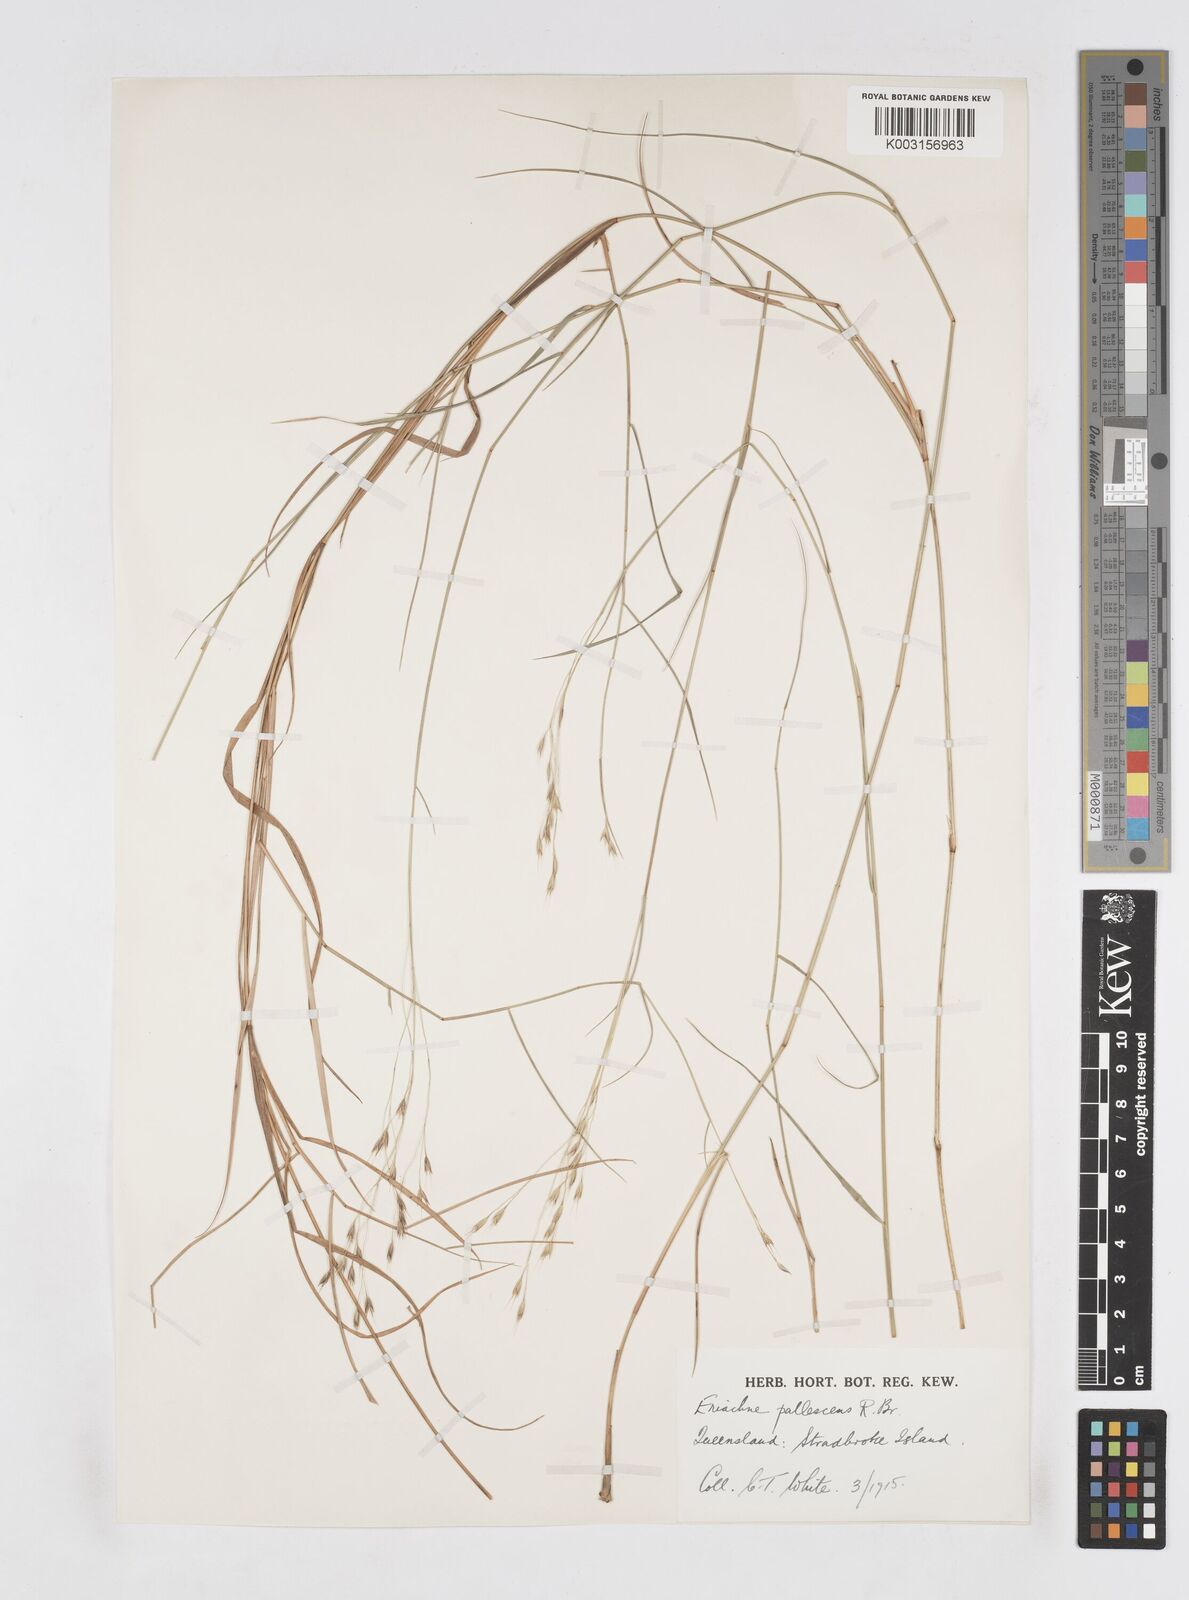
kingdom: Plantae
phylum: Tracheophyta
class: Liliopsida
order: Poales
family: Poaceae
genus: Eriachne
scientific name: Eriachne pallescens
